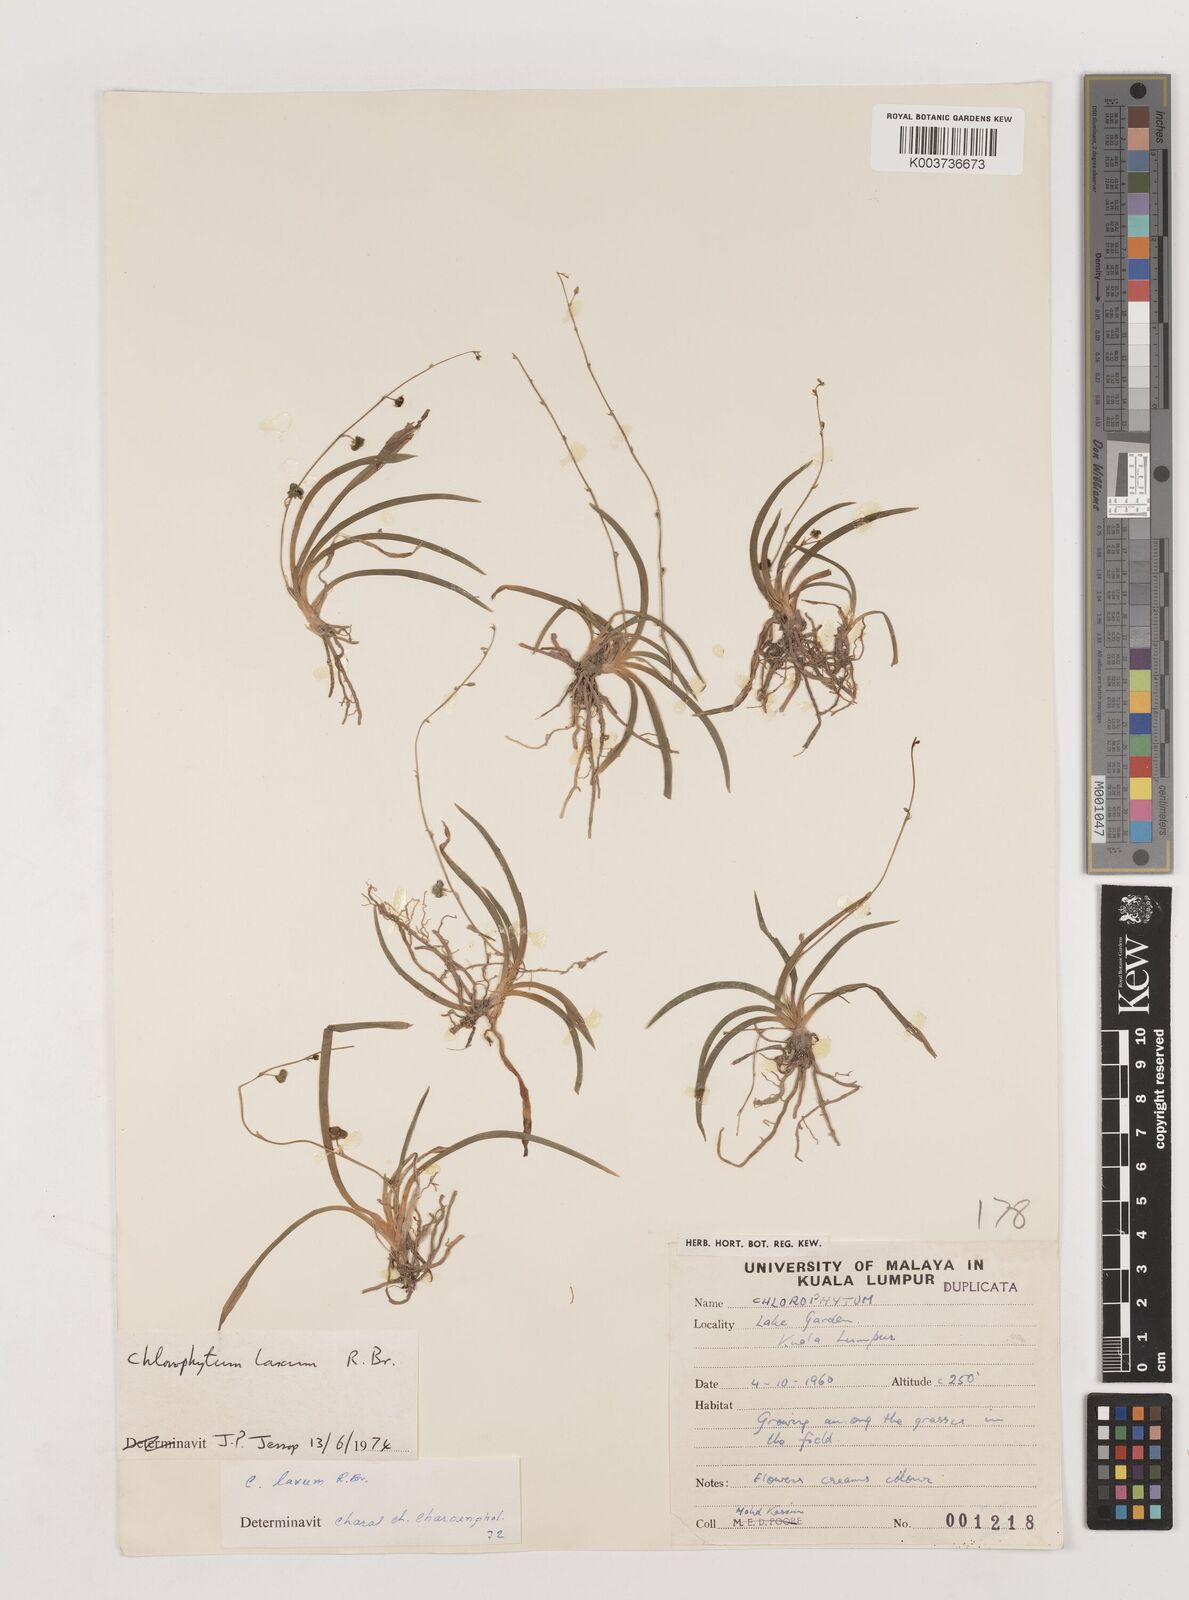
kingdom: Plantae
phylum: Tracheophyta
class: Liliopsida
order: Asparagales
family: Asparagaceae
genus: Chlorophytum
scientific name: Chlorophytum
